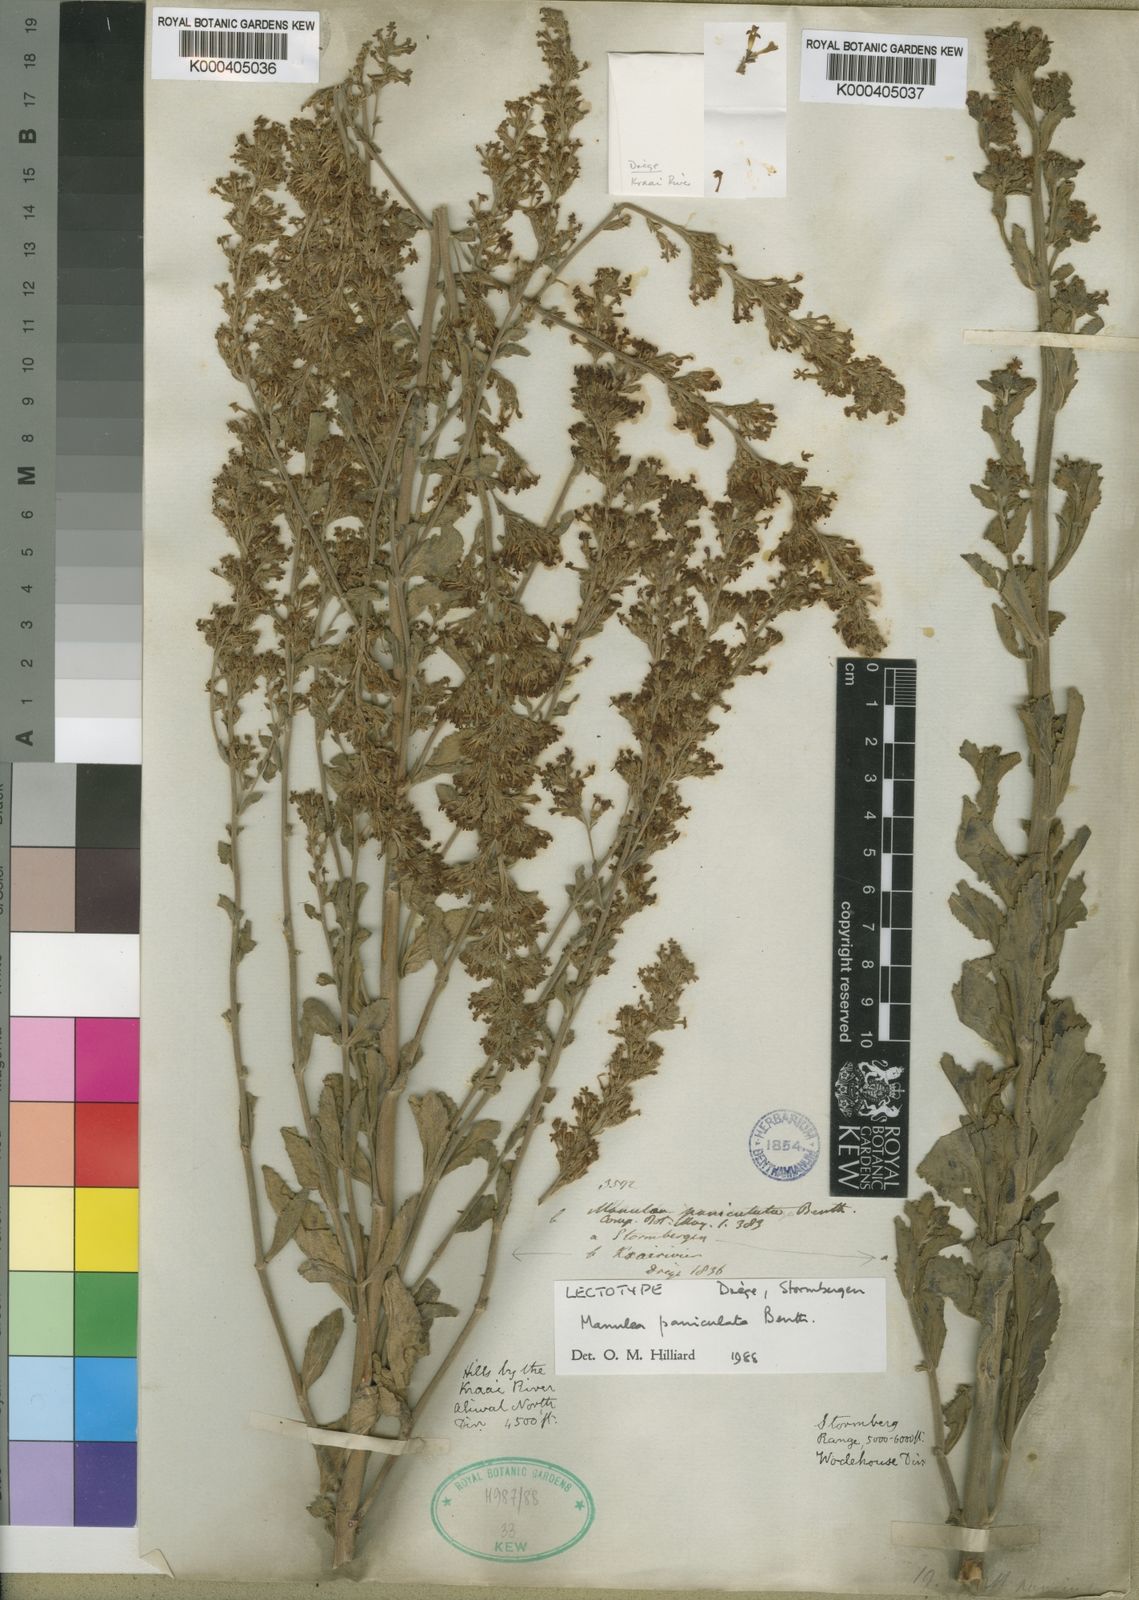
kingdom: Plantae
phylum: Tracheophyta
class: Magnoliopsida
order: Lamiales
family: Scrophulariaceae
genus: Manulea
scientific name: Manulea paniculata
